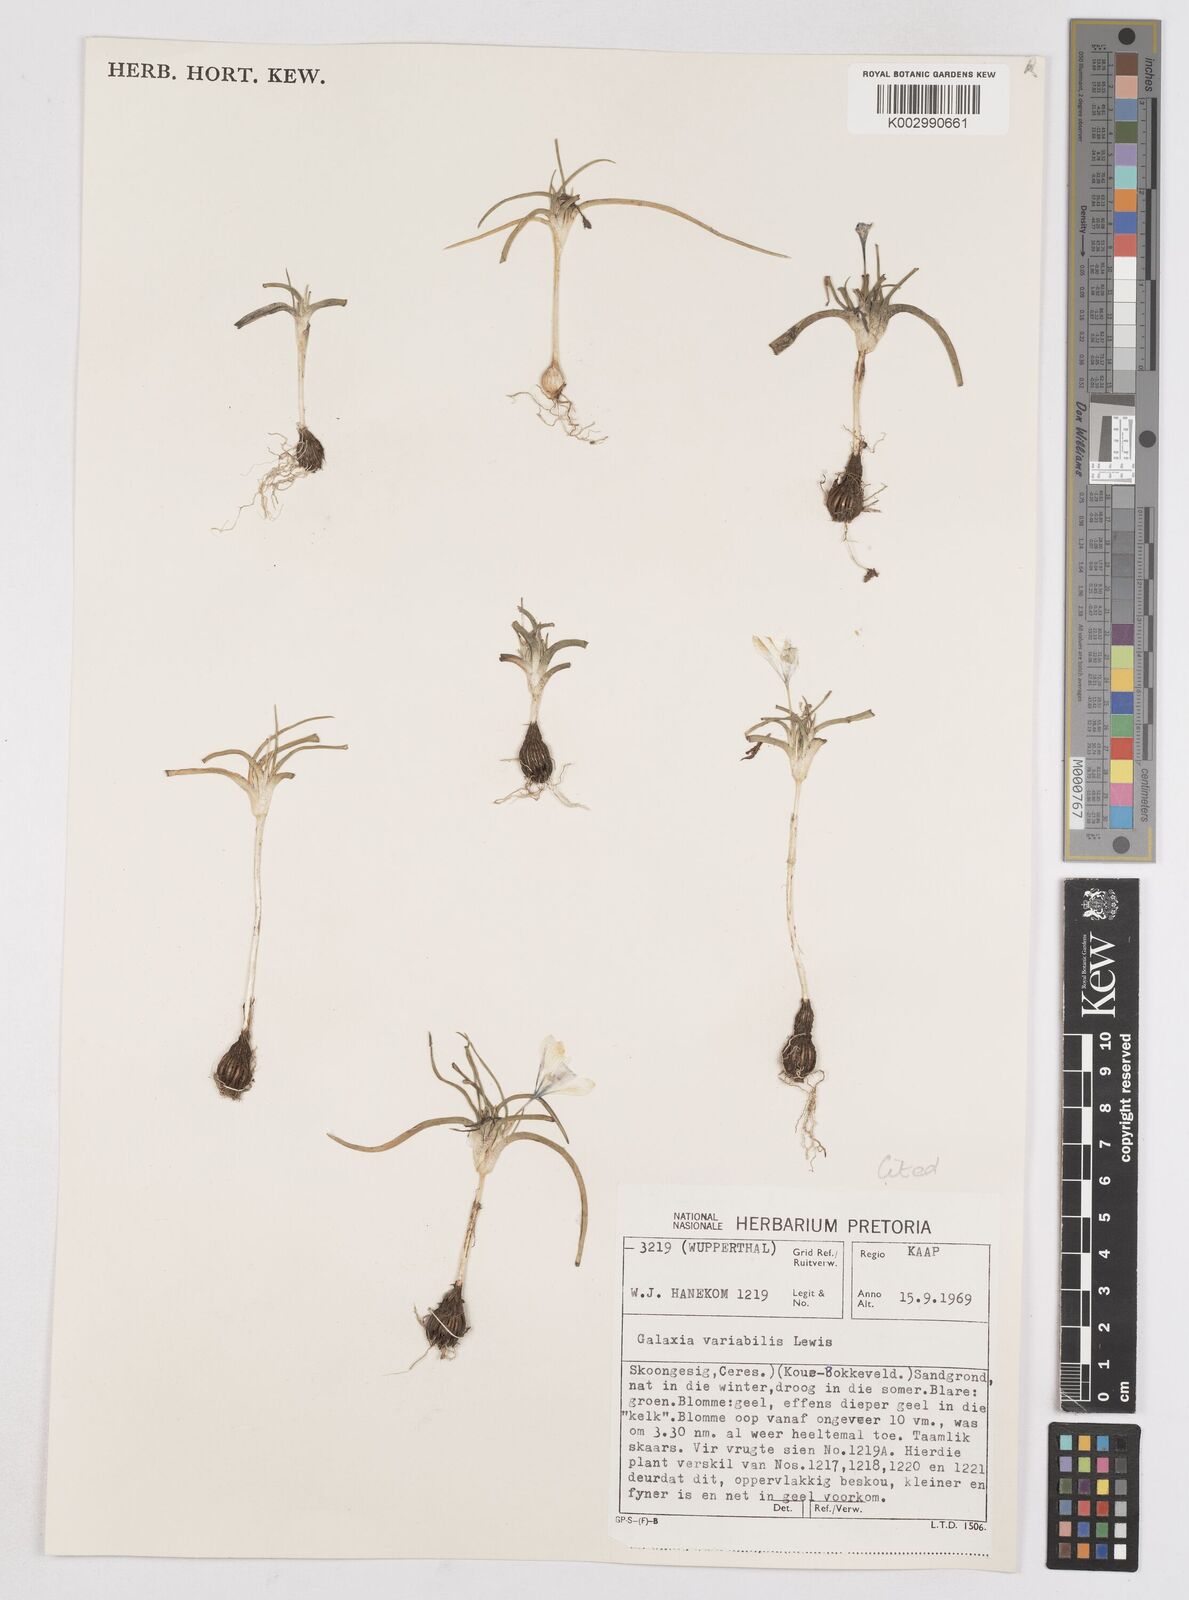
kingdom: Plantae
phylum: Tracheophyta
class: Liliopsida
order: Asparagales
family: Iridaceae
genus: Moraea
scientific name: Moraea variabilis
